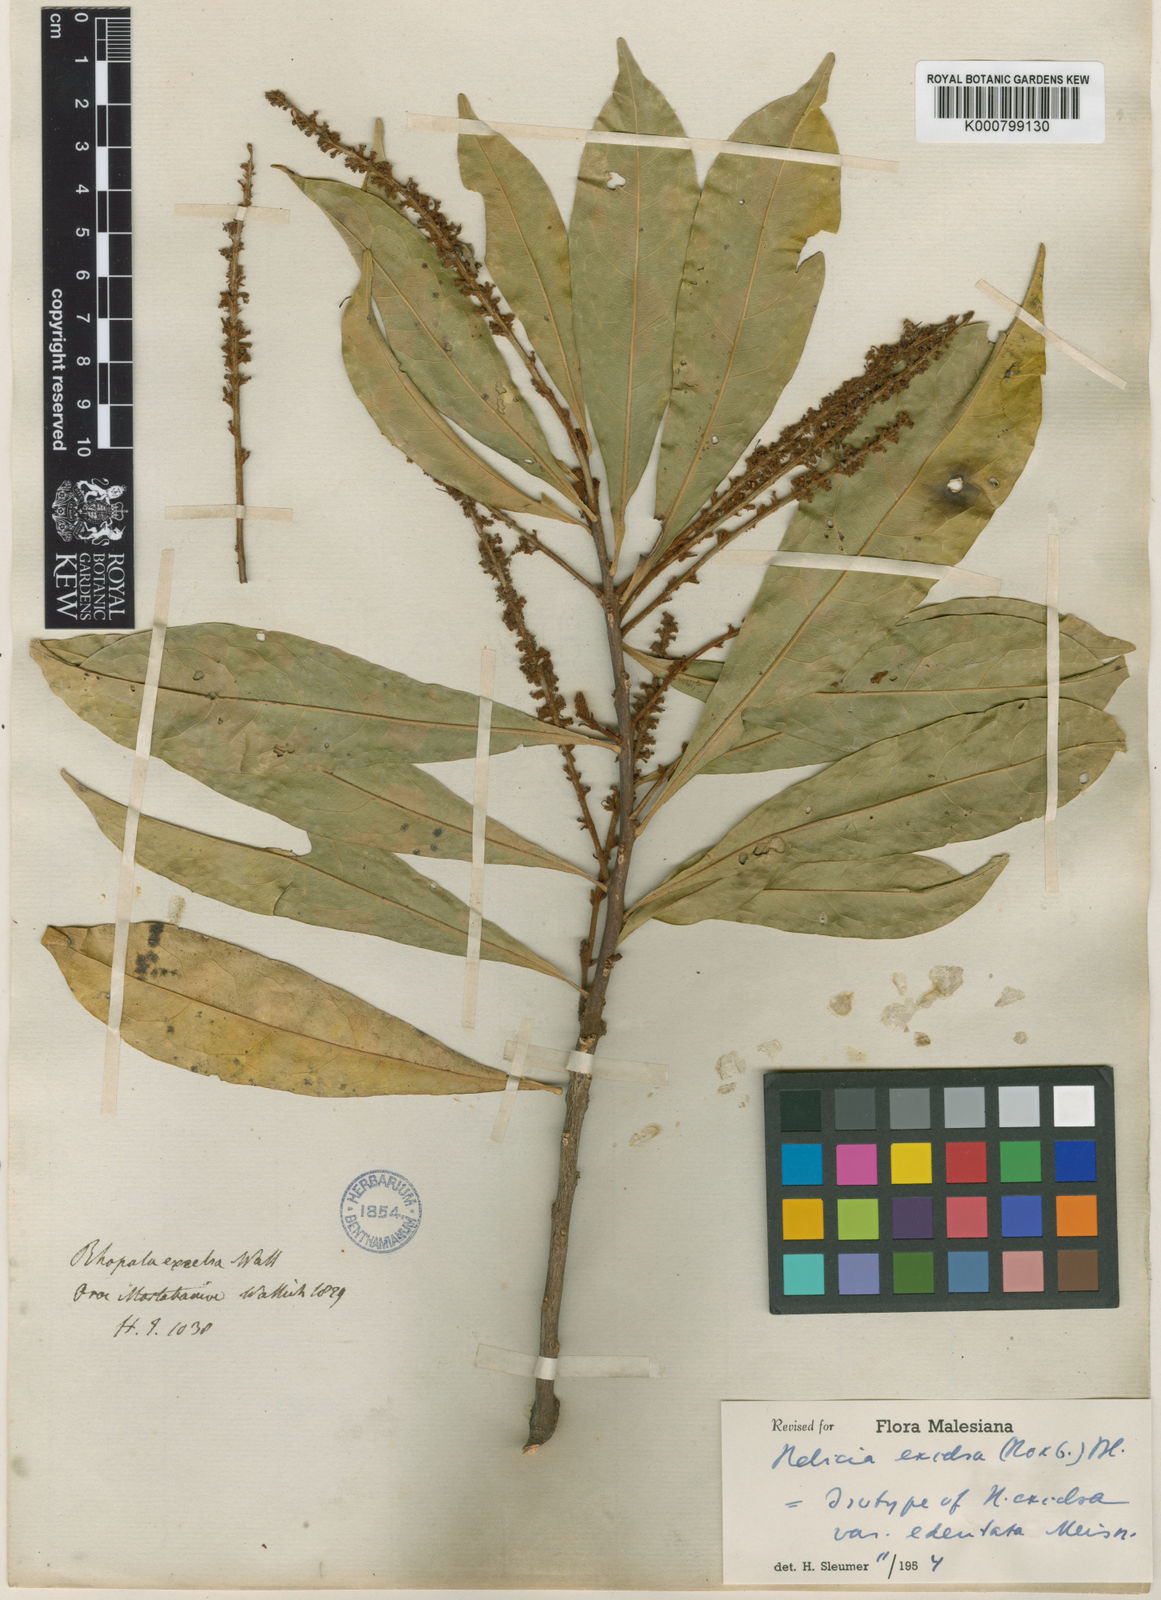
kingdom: Plantae
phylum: Tracheophyta
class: Magnoliopsida
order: Proteales
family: Proteaceae
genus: Helicia
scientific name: Helicia excelsa
